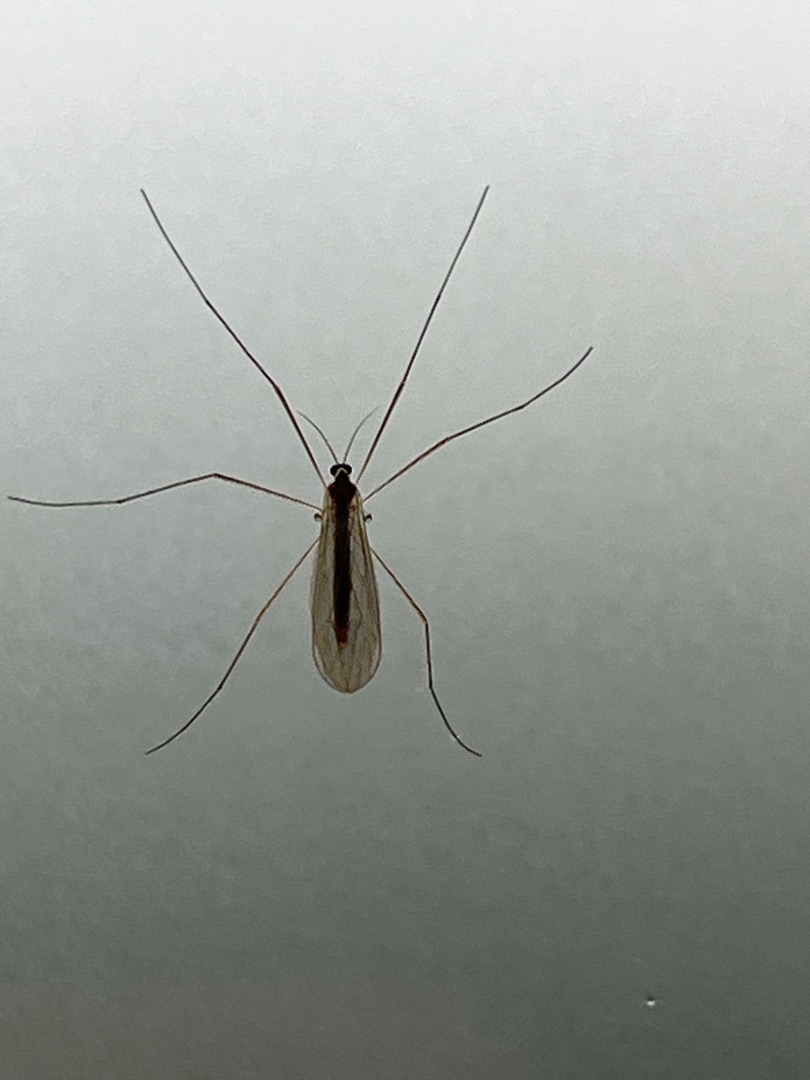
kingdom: Animalia
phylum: Arthropoda
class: Insecta
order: Diptera
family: Trichoceridae
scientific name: Trichoceridae
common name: Vintermyg
